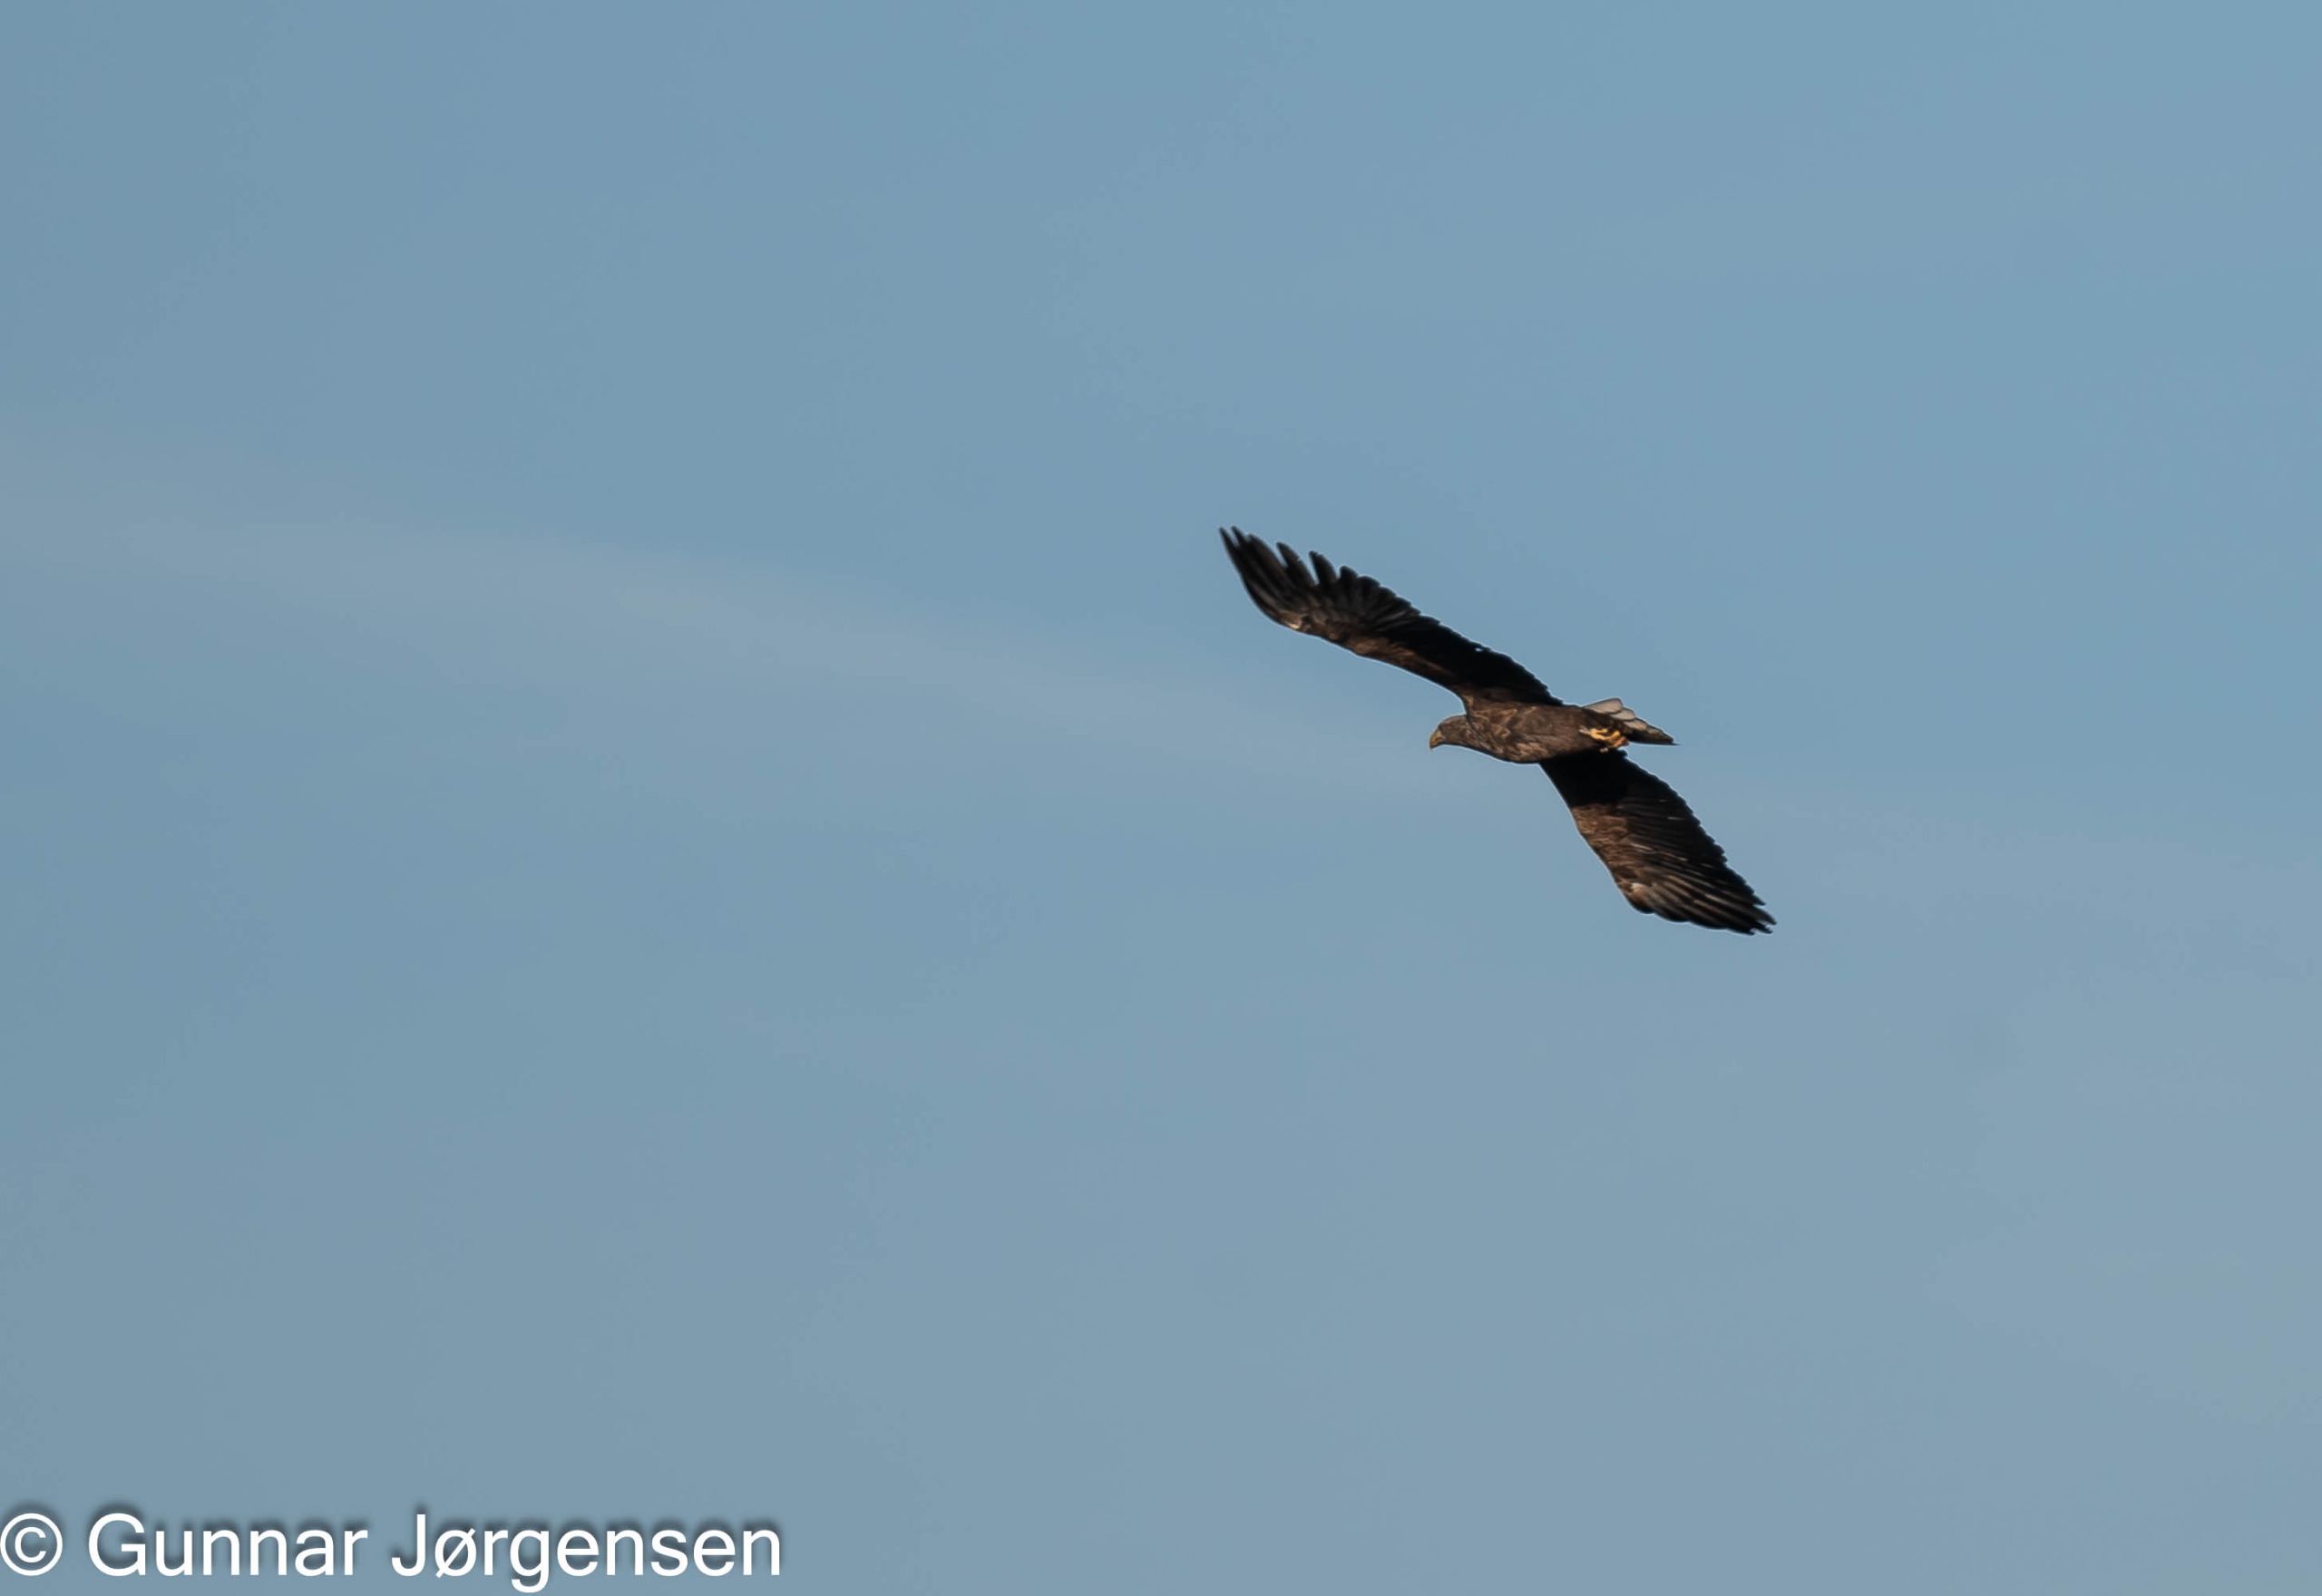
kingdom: Animalia
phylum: Chordata
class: Aves
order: Accipitriformes
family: Accipitridae
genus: Haliaeetus
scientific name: Haliaeetus albicilla
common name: Havørn
